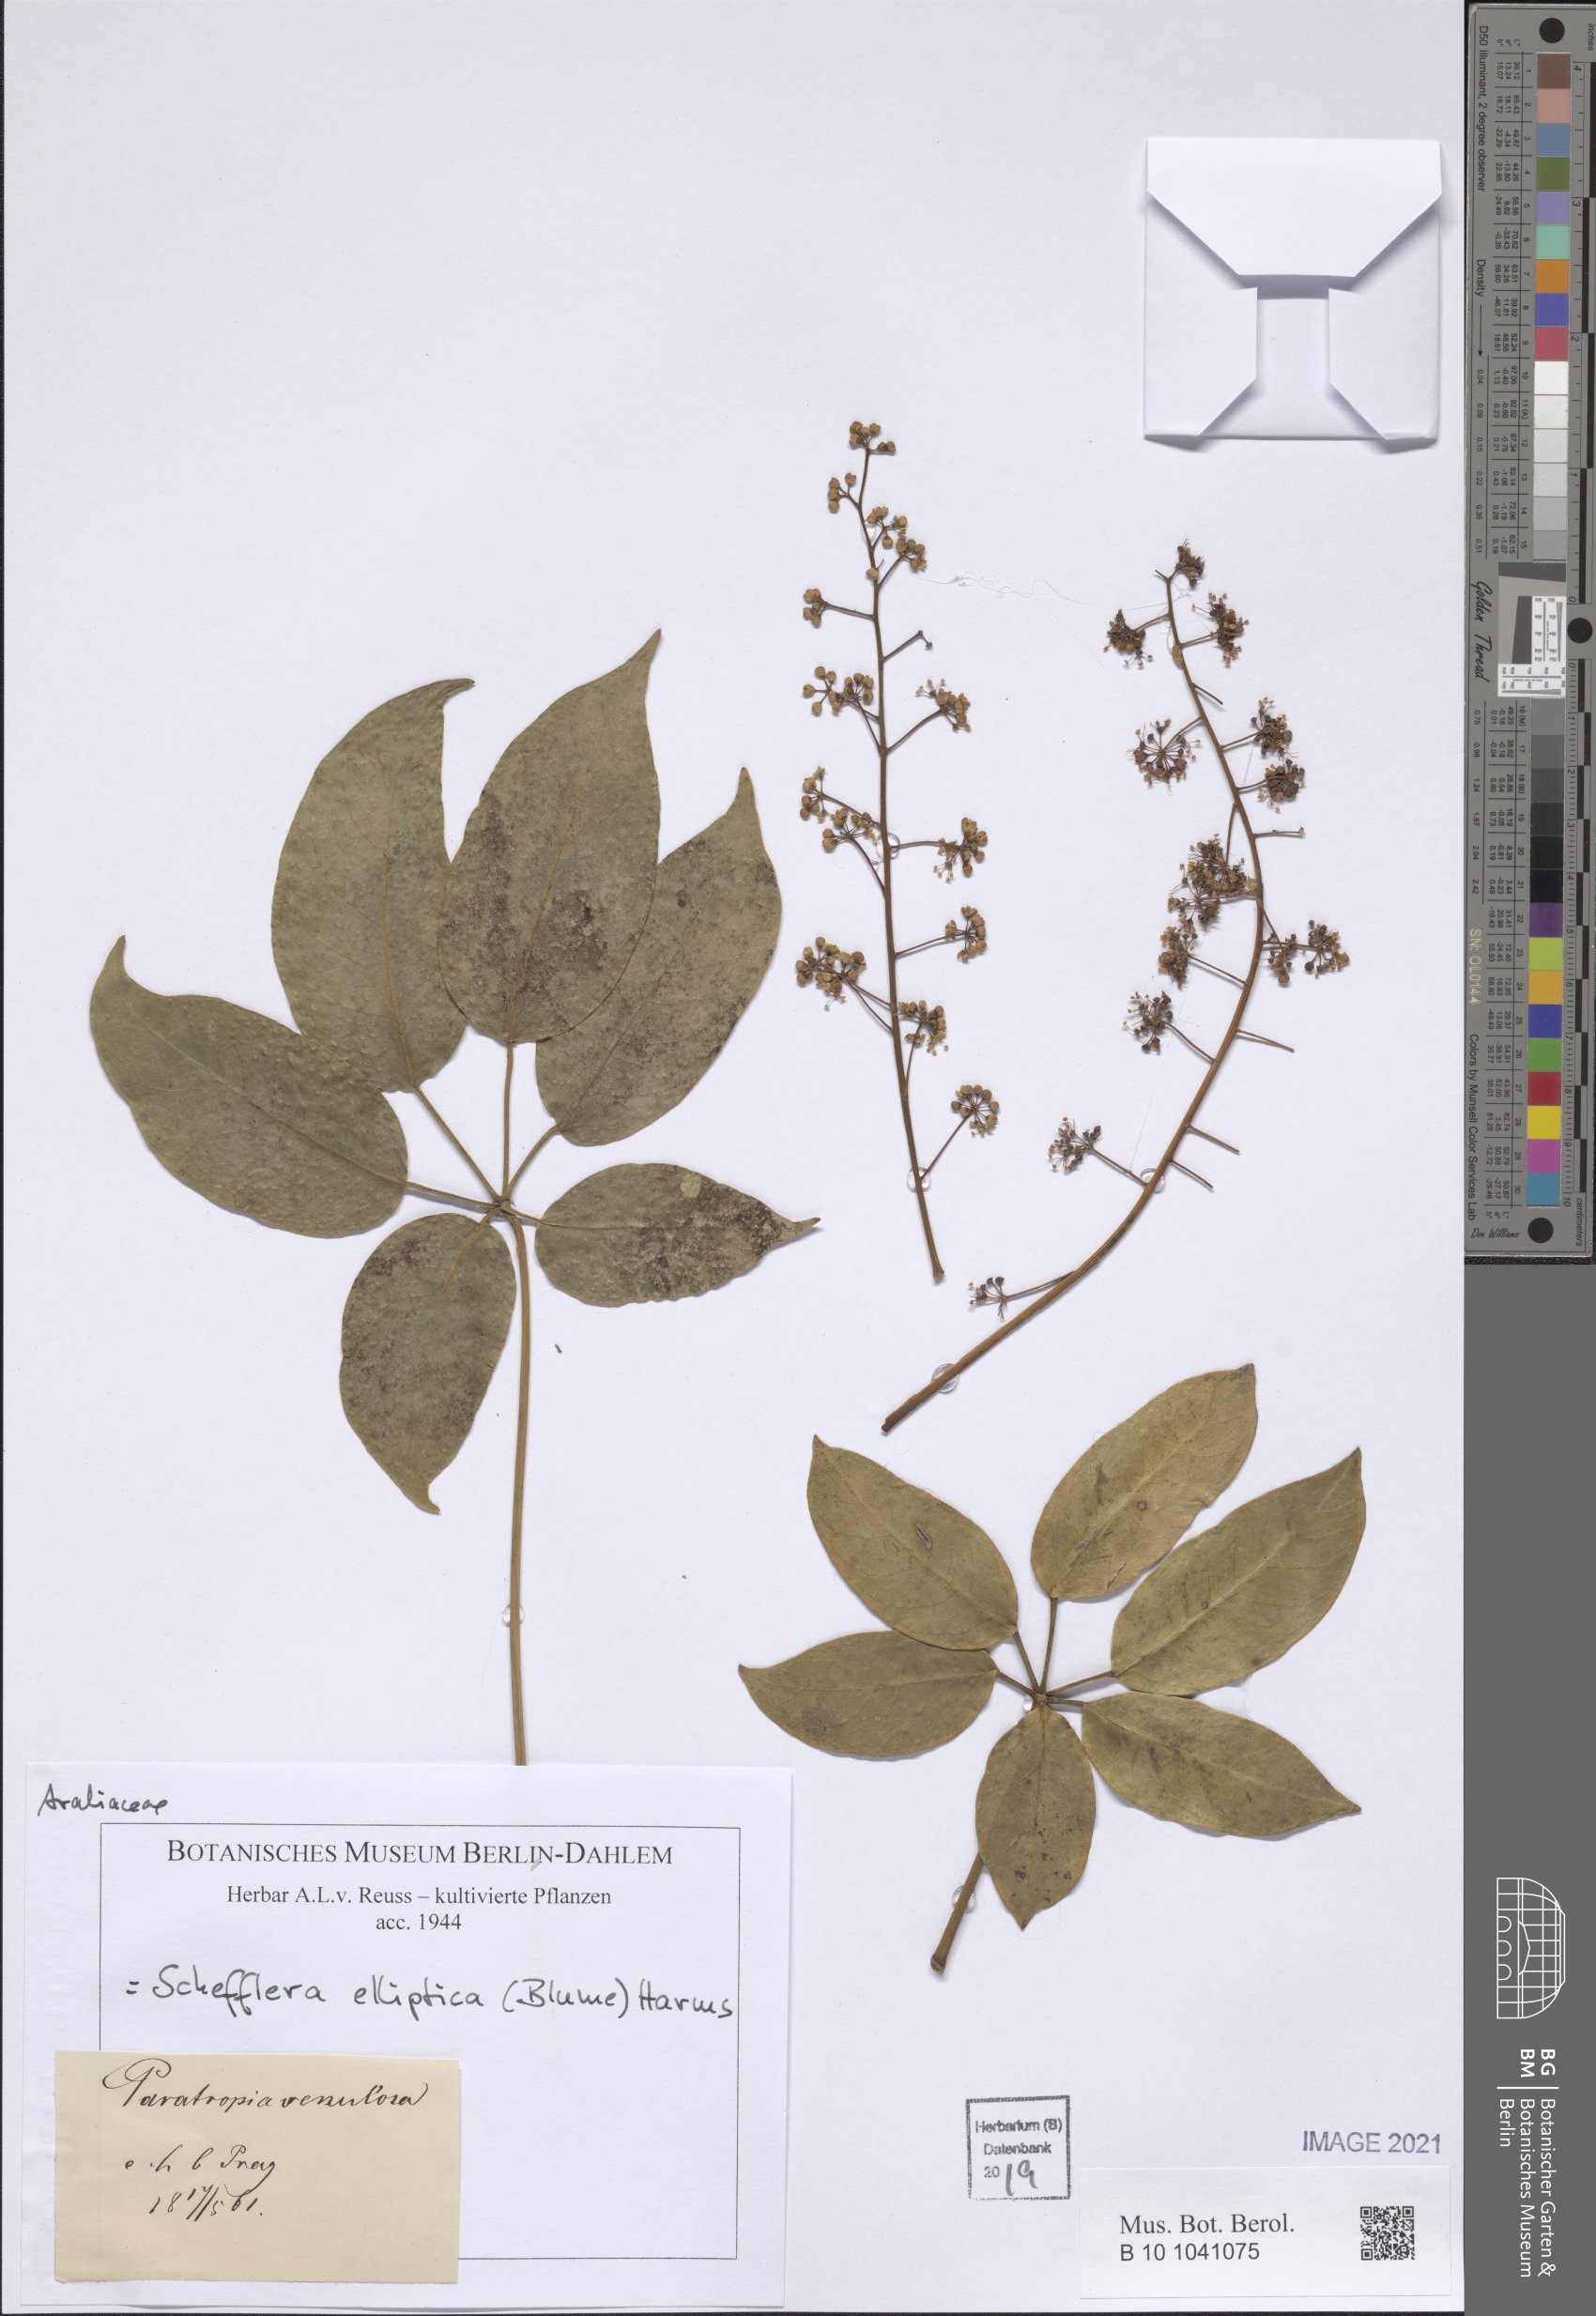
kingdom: Plantae
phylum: Tracheophyta
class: Magnoliopsida
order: Apiales
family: Araliaceae
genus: Heptapleurum
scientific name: Heptapleurum ellipticum
